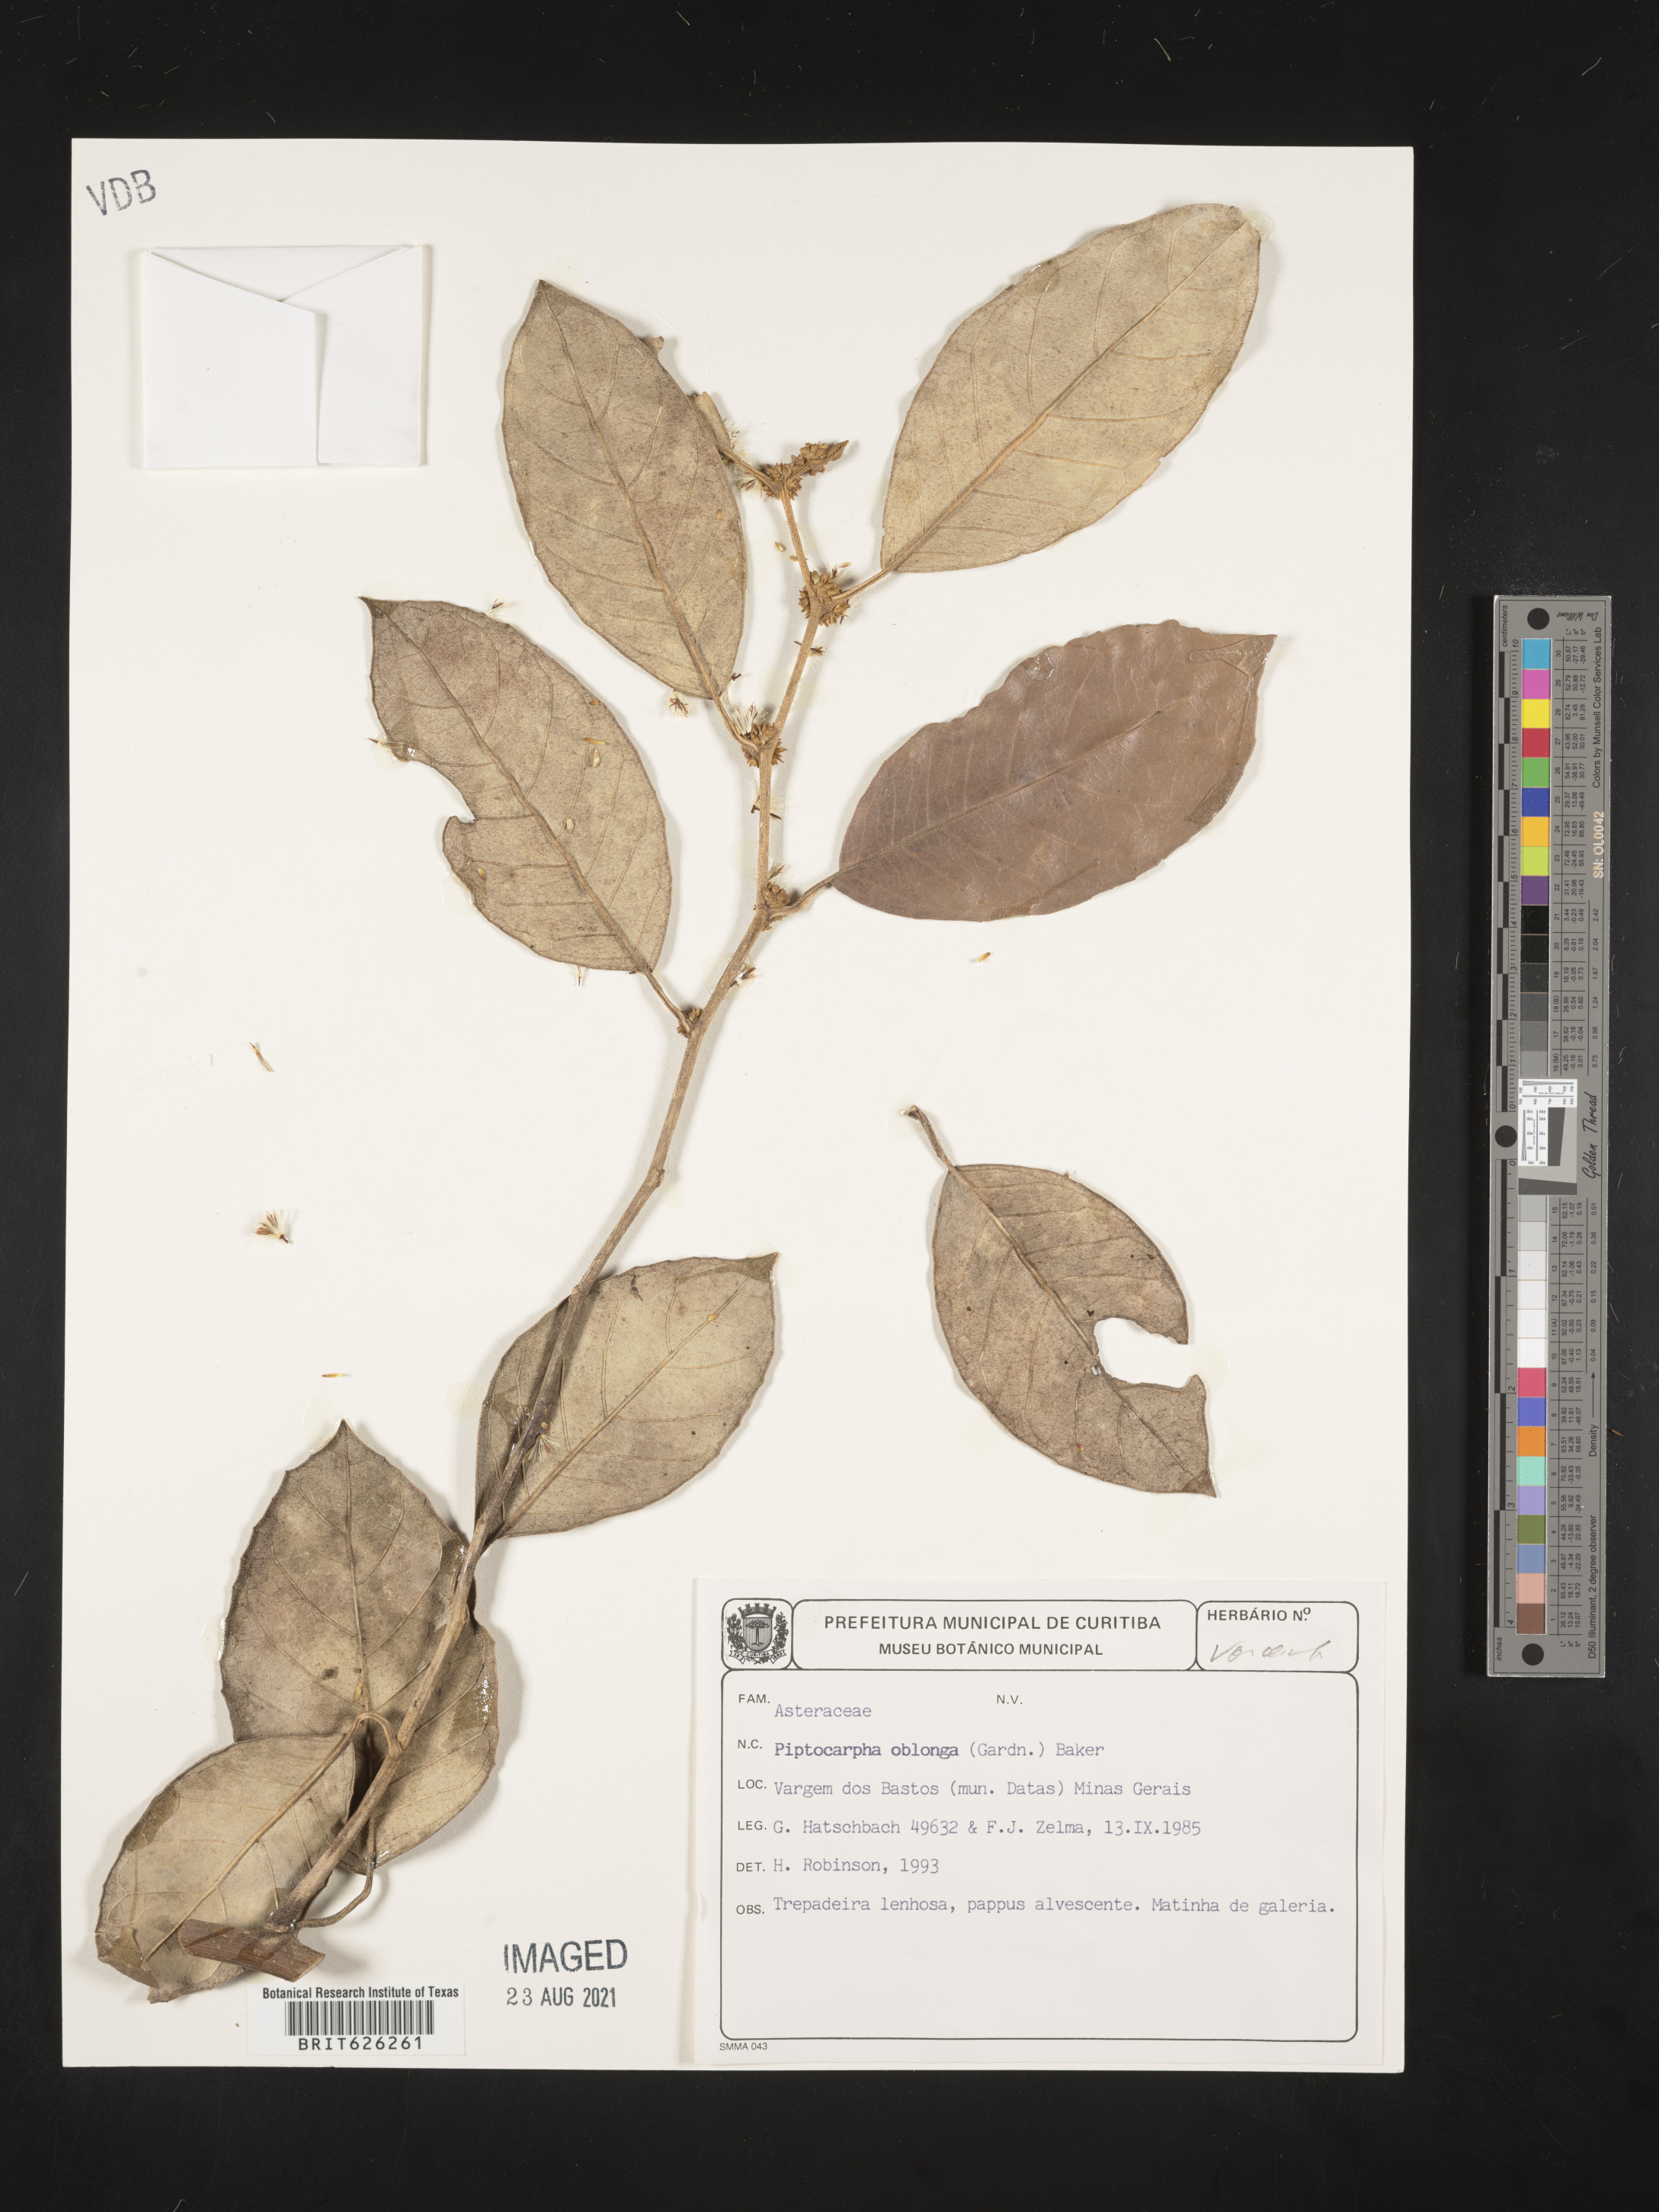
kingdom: Plantae
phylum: Tracheophyta
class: Magnoliopsida
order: Asterales
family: Asteraceae
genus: Piptocarpha
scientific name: Piptocarpha oblonga
